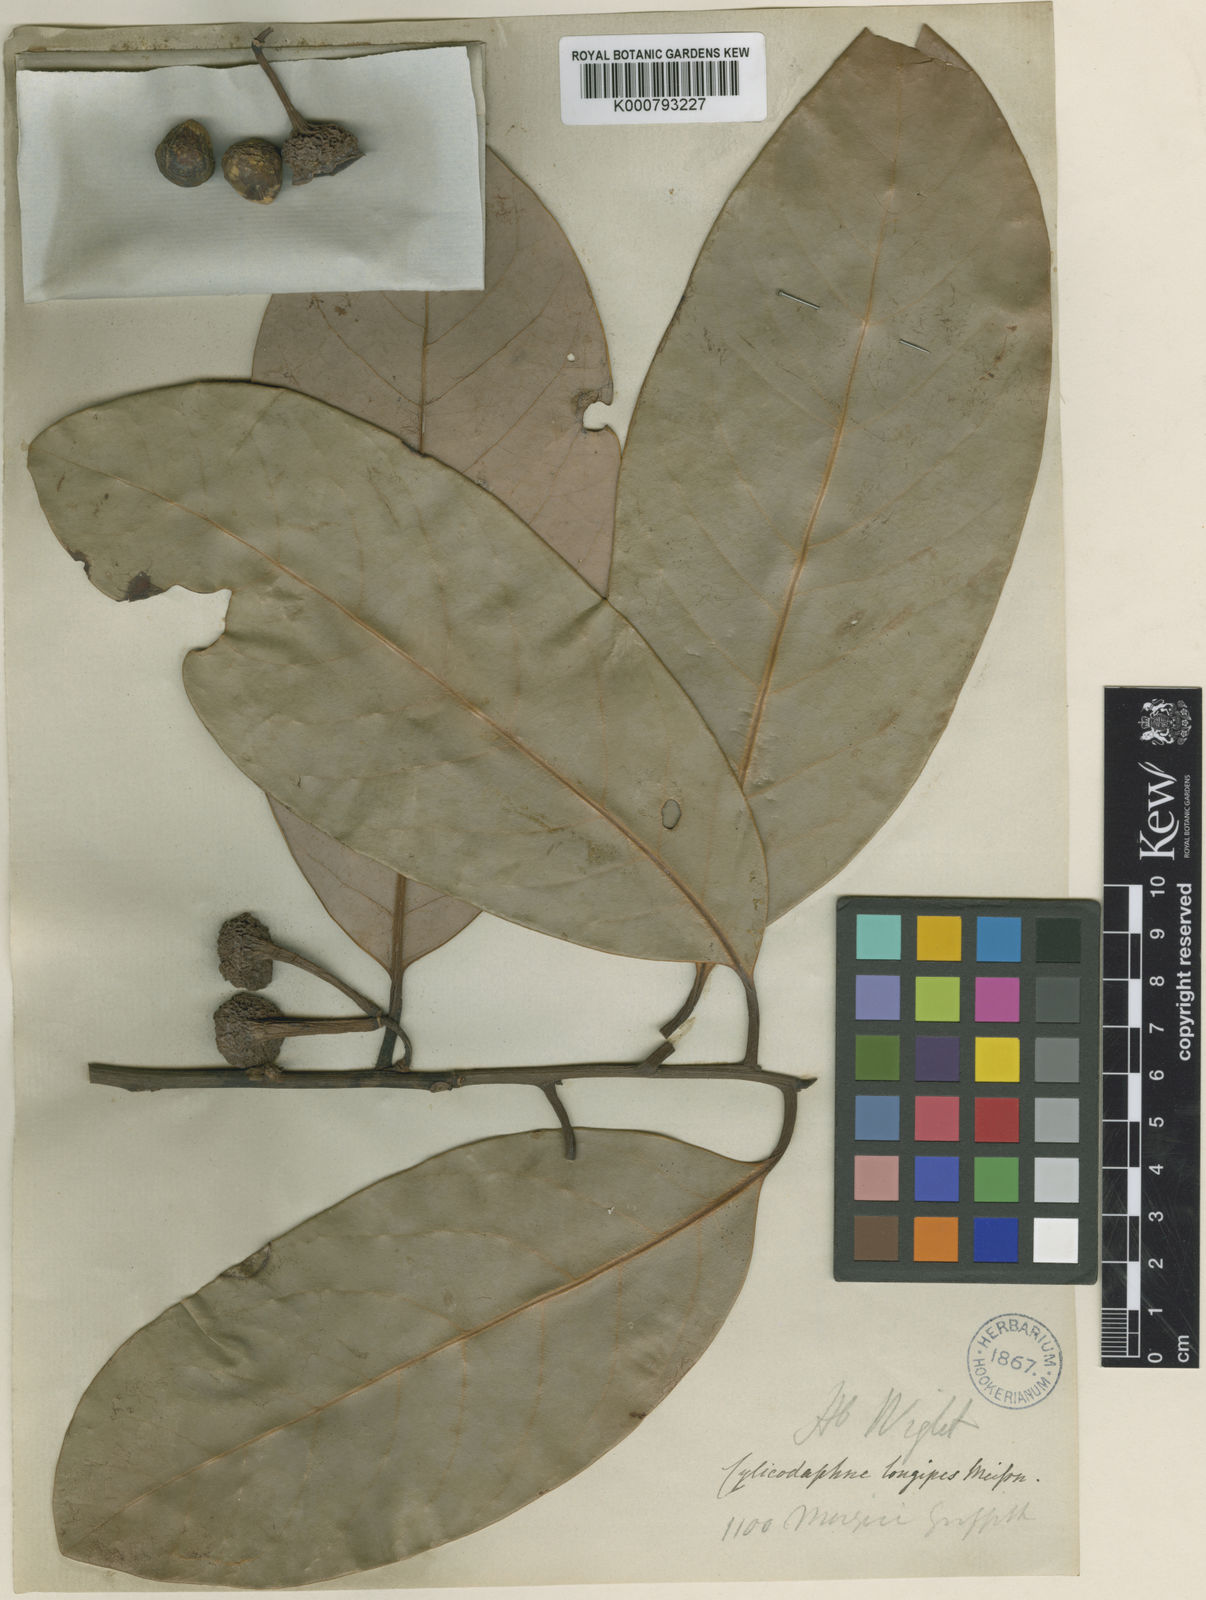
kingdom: Plantae
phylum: Tracheophyta
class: Magnoliopsida
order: Laurales
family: Lauraceae
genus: Litsea
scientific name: Litsea longipes
